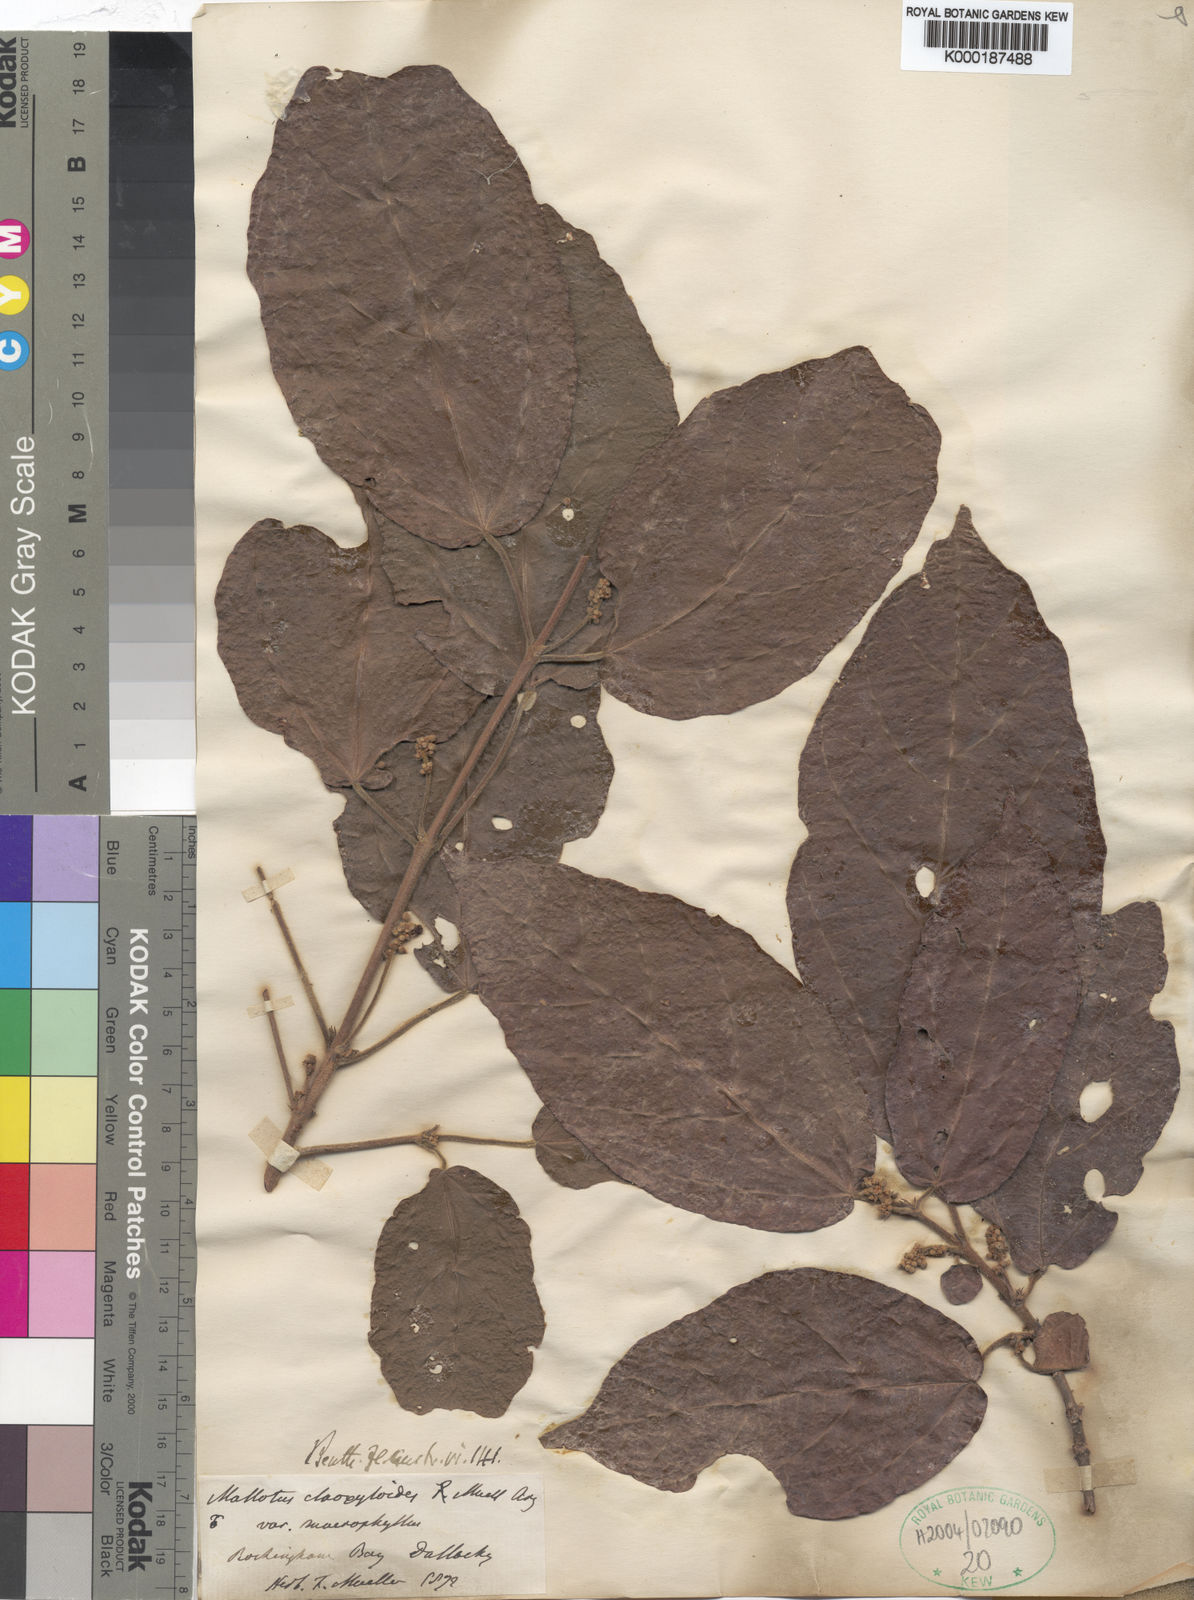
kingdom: Plantae
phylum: Tracheophyta
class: Magnoliopsida
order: Malpighiales
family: Euphorbiaceae
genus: Mallotus
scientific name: Mallotus ficifolius
